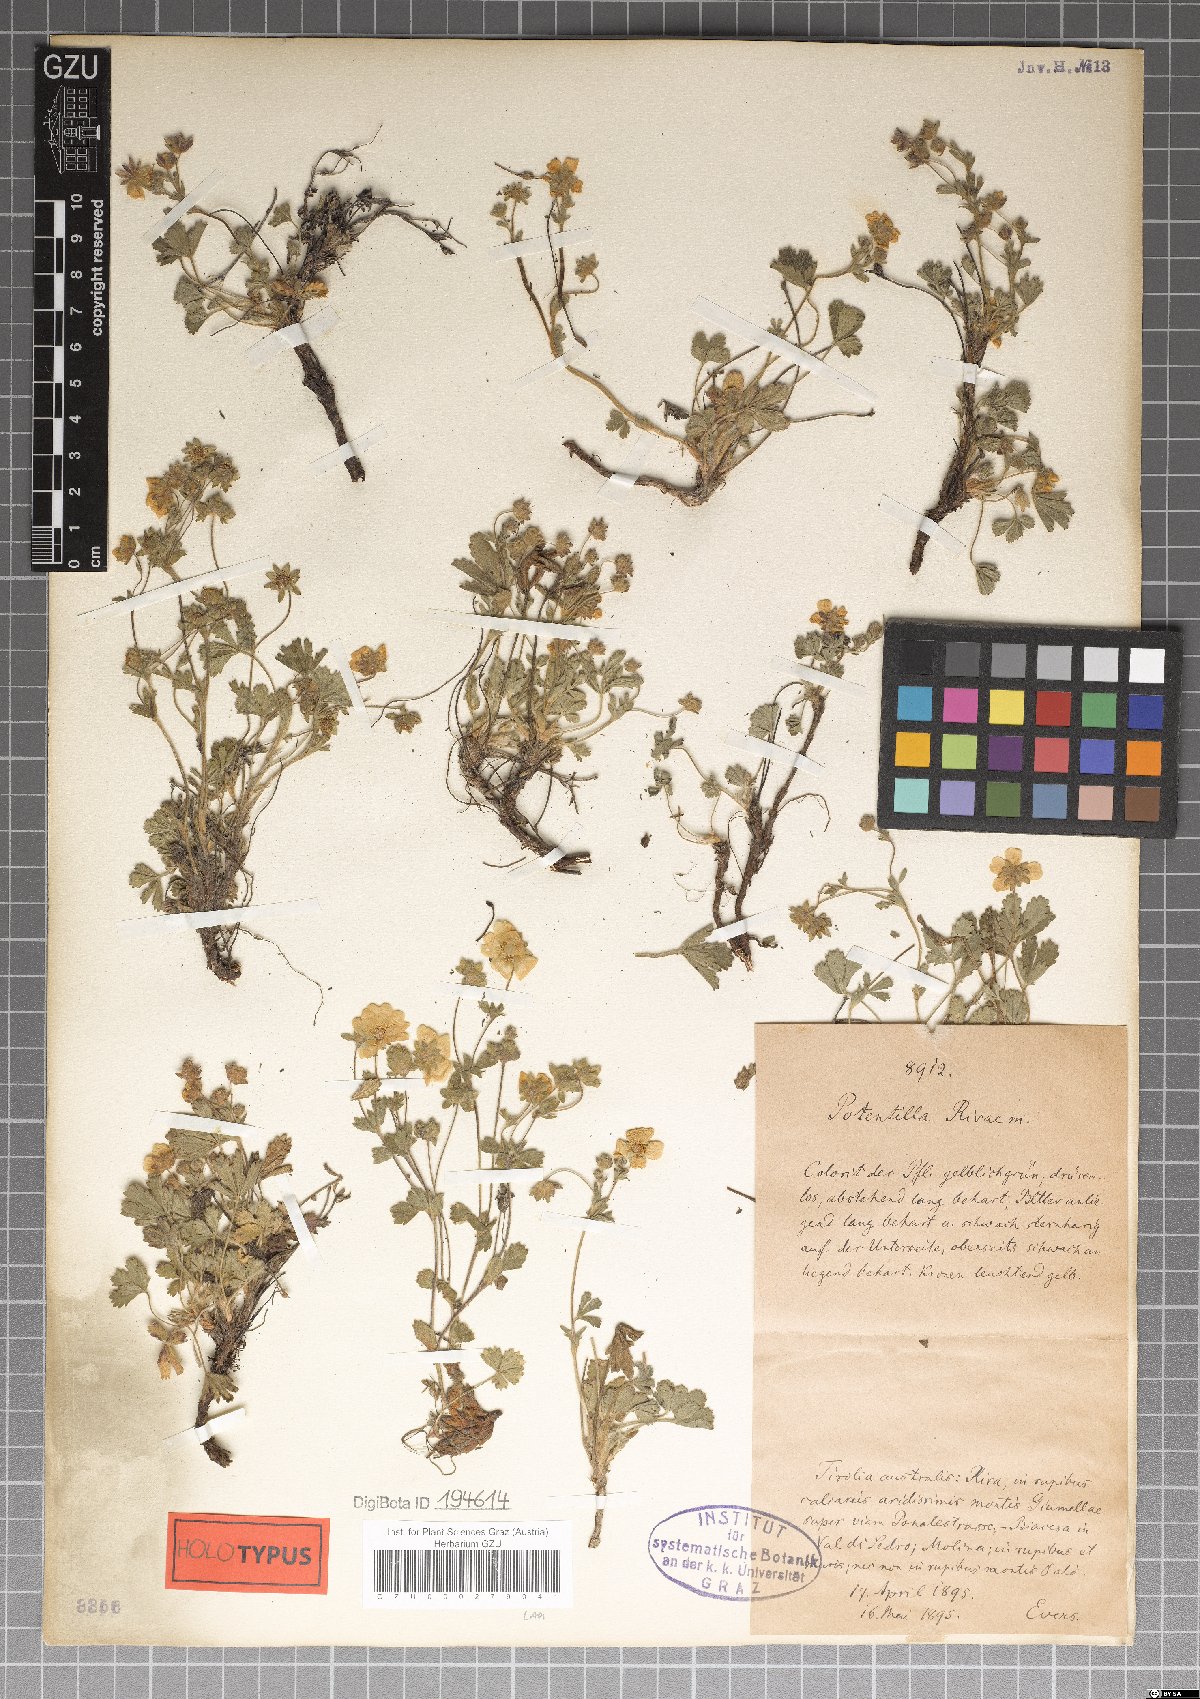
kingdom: Plantae
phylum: Tracheophyta
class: Magnoliopsida
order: Rosales
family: Rosaceae
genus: Potentilla
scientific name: Potentilla pusilla
